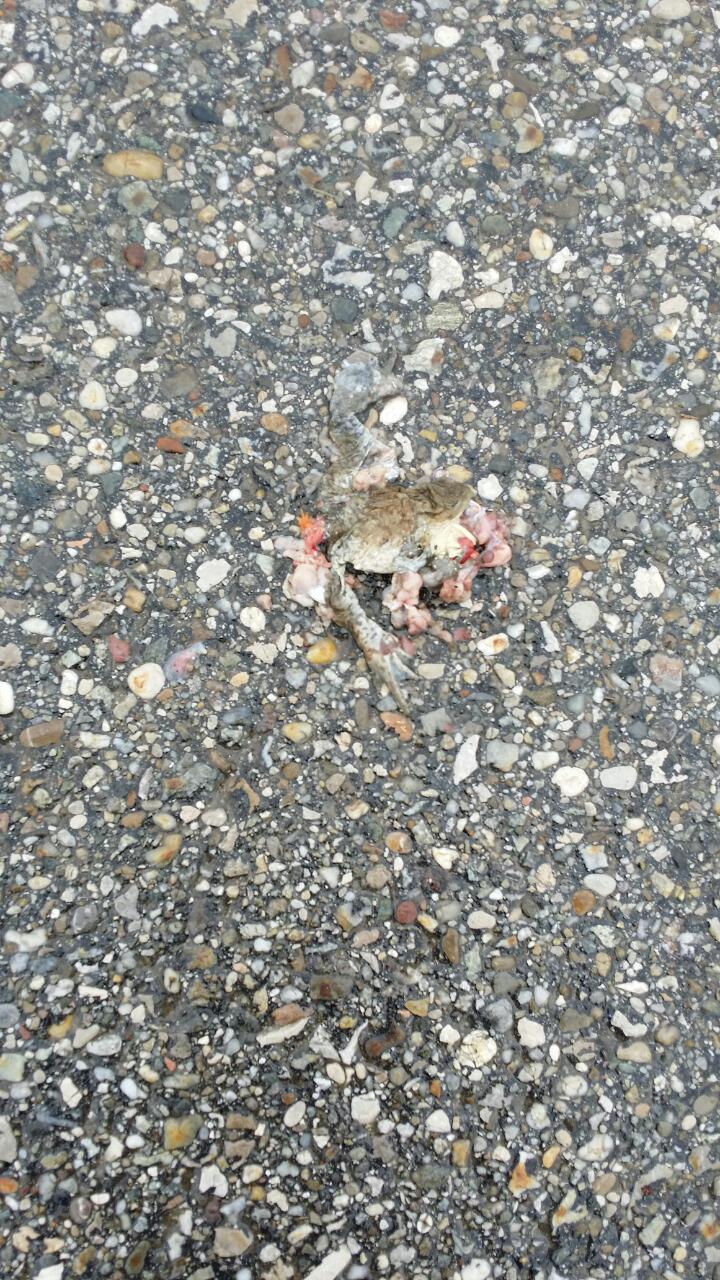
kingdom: Animalia
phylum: Chordata
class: Amphibia
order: Anura
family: Bufonidae
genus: Bufo
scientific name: Bufo bufo
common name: Common toad
